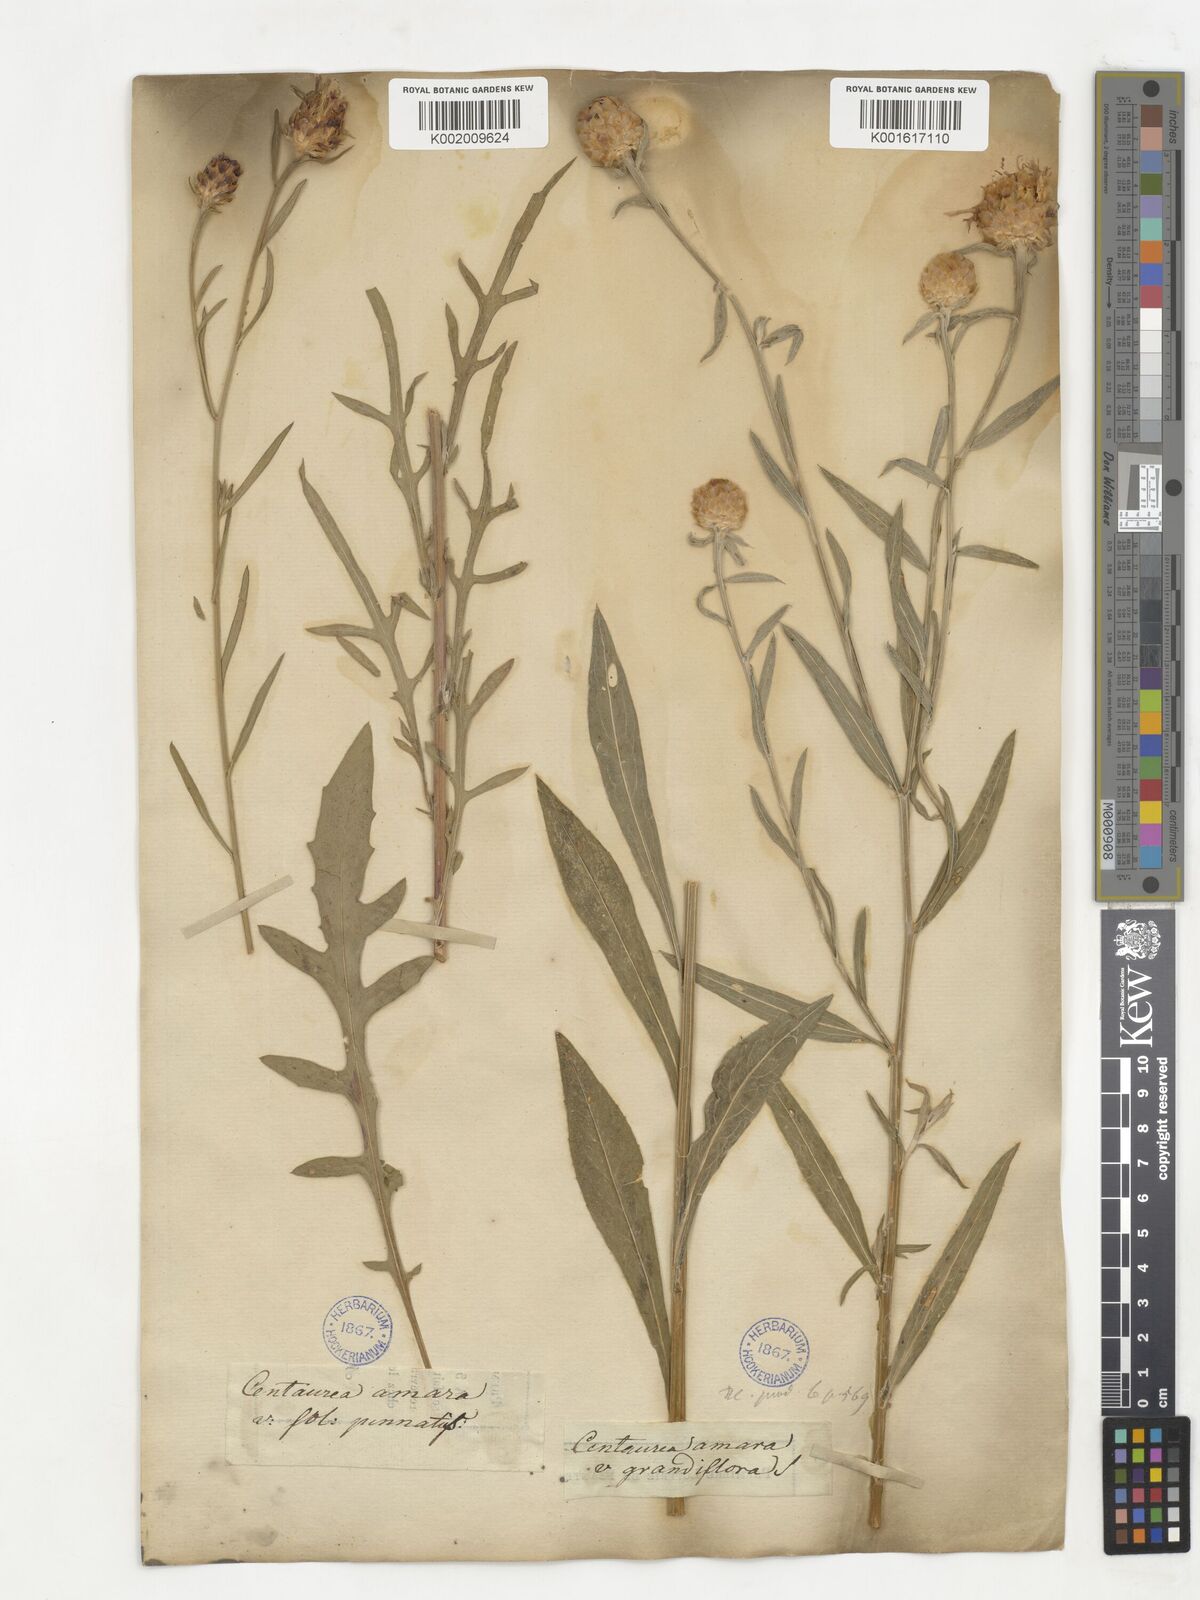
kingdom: Plantae
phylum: Tracheophyta
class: Magnoliopsida
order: Asterales
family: Asteraceae
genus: Centaurea
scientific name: Centaurea jacea
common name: Brown knapweed
